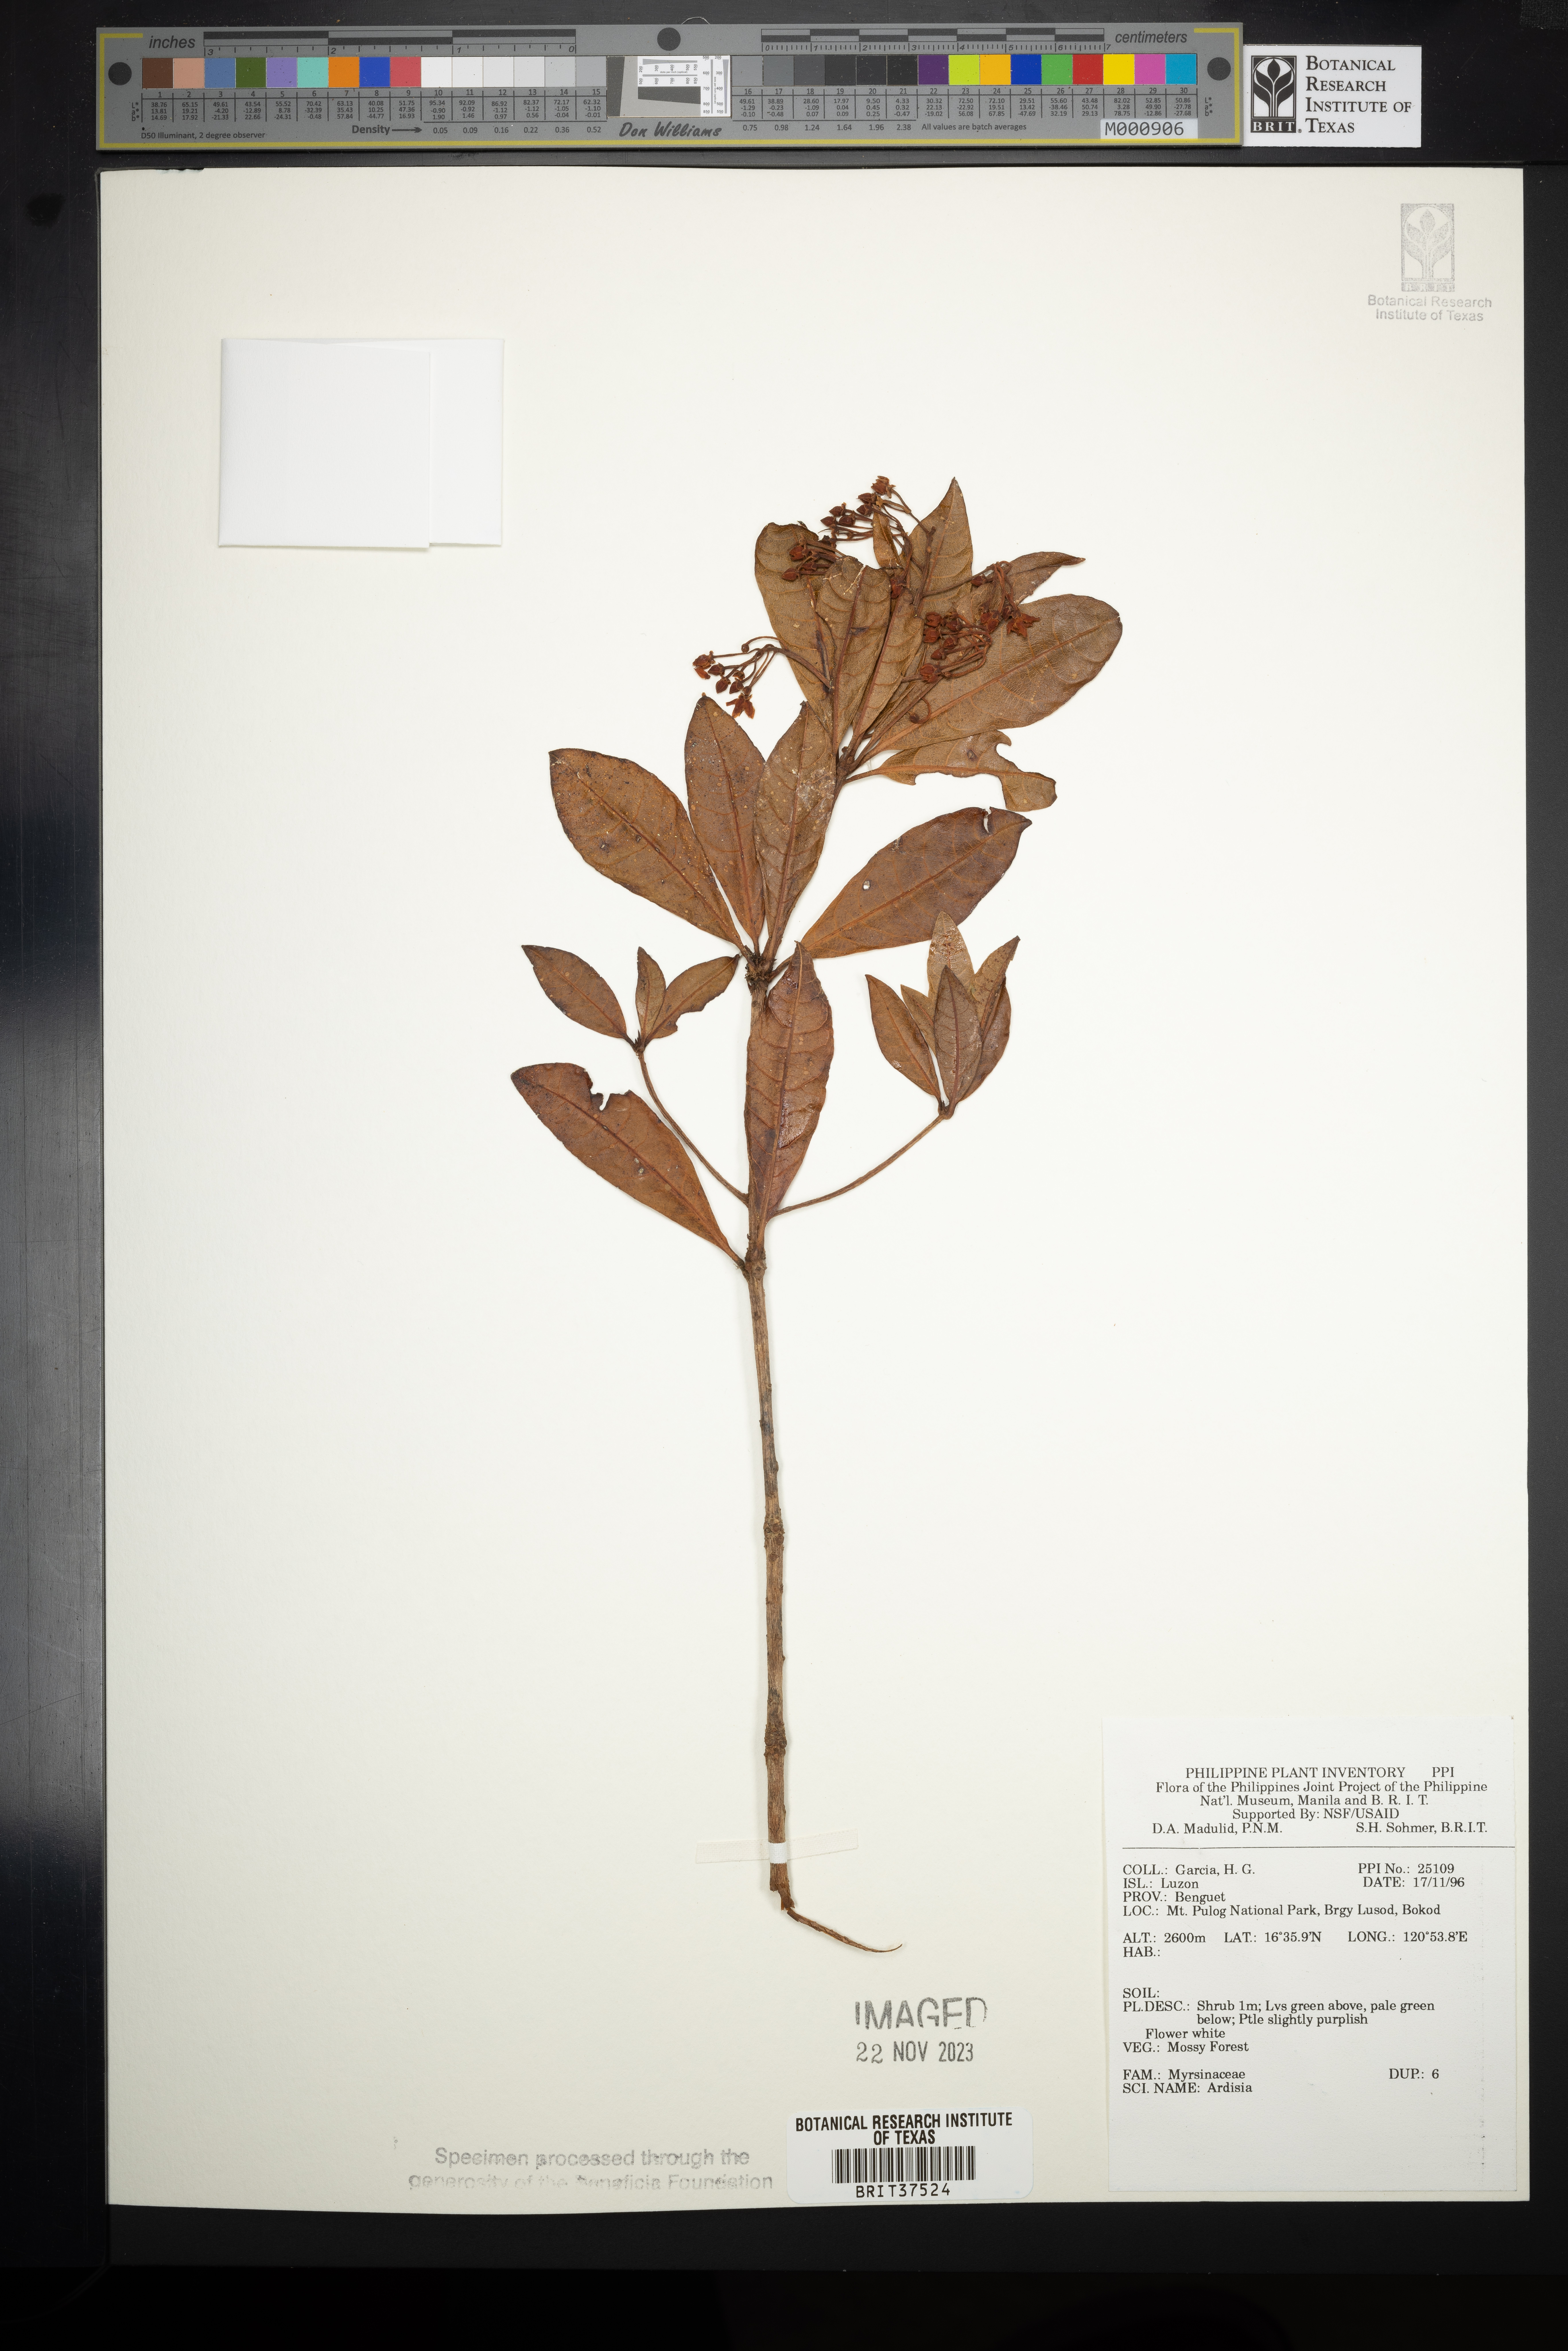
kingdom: Plantae
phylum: Tracheophyta
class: Magnoliopsida
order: Ericales
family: Primulaceae
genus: Ardisia
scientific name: Ardisia
